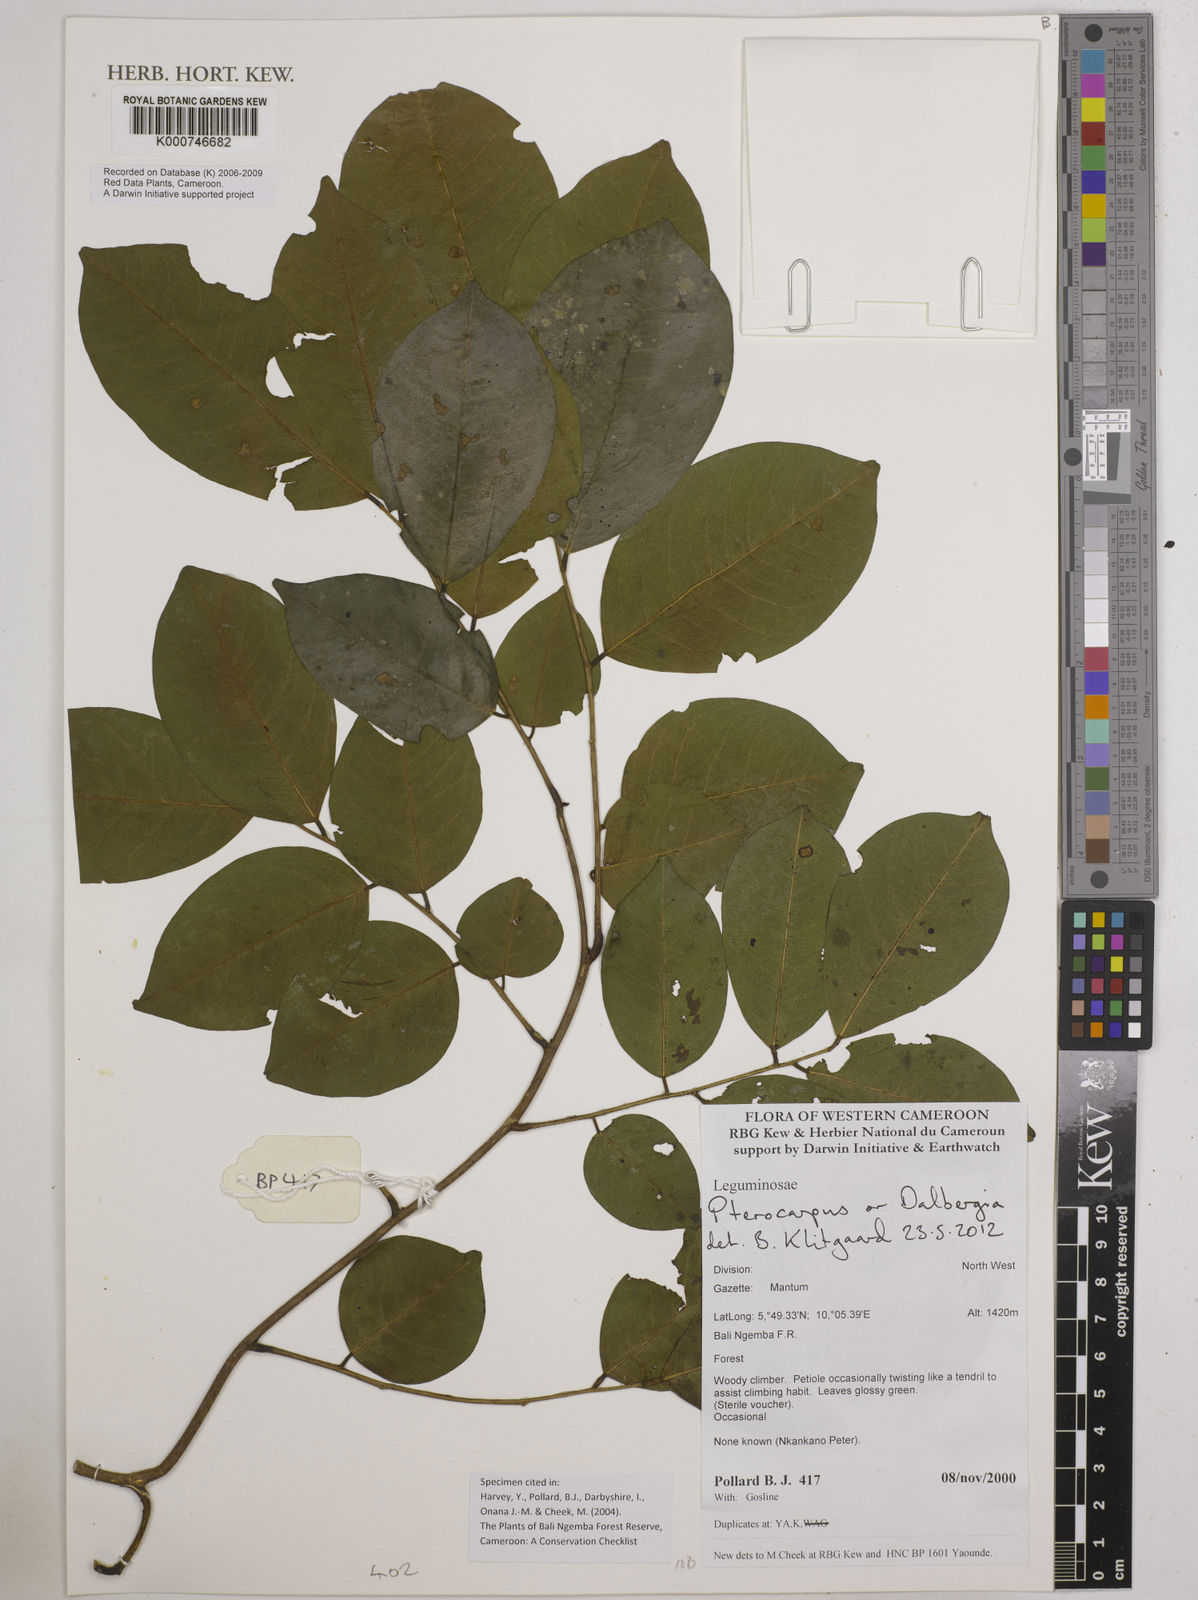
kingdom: Plantae
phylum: Tracheophyta
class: Magnoliopsida
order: Fabales
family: Fabaceae
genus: Pterocarpus
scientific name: Pterocarpus
